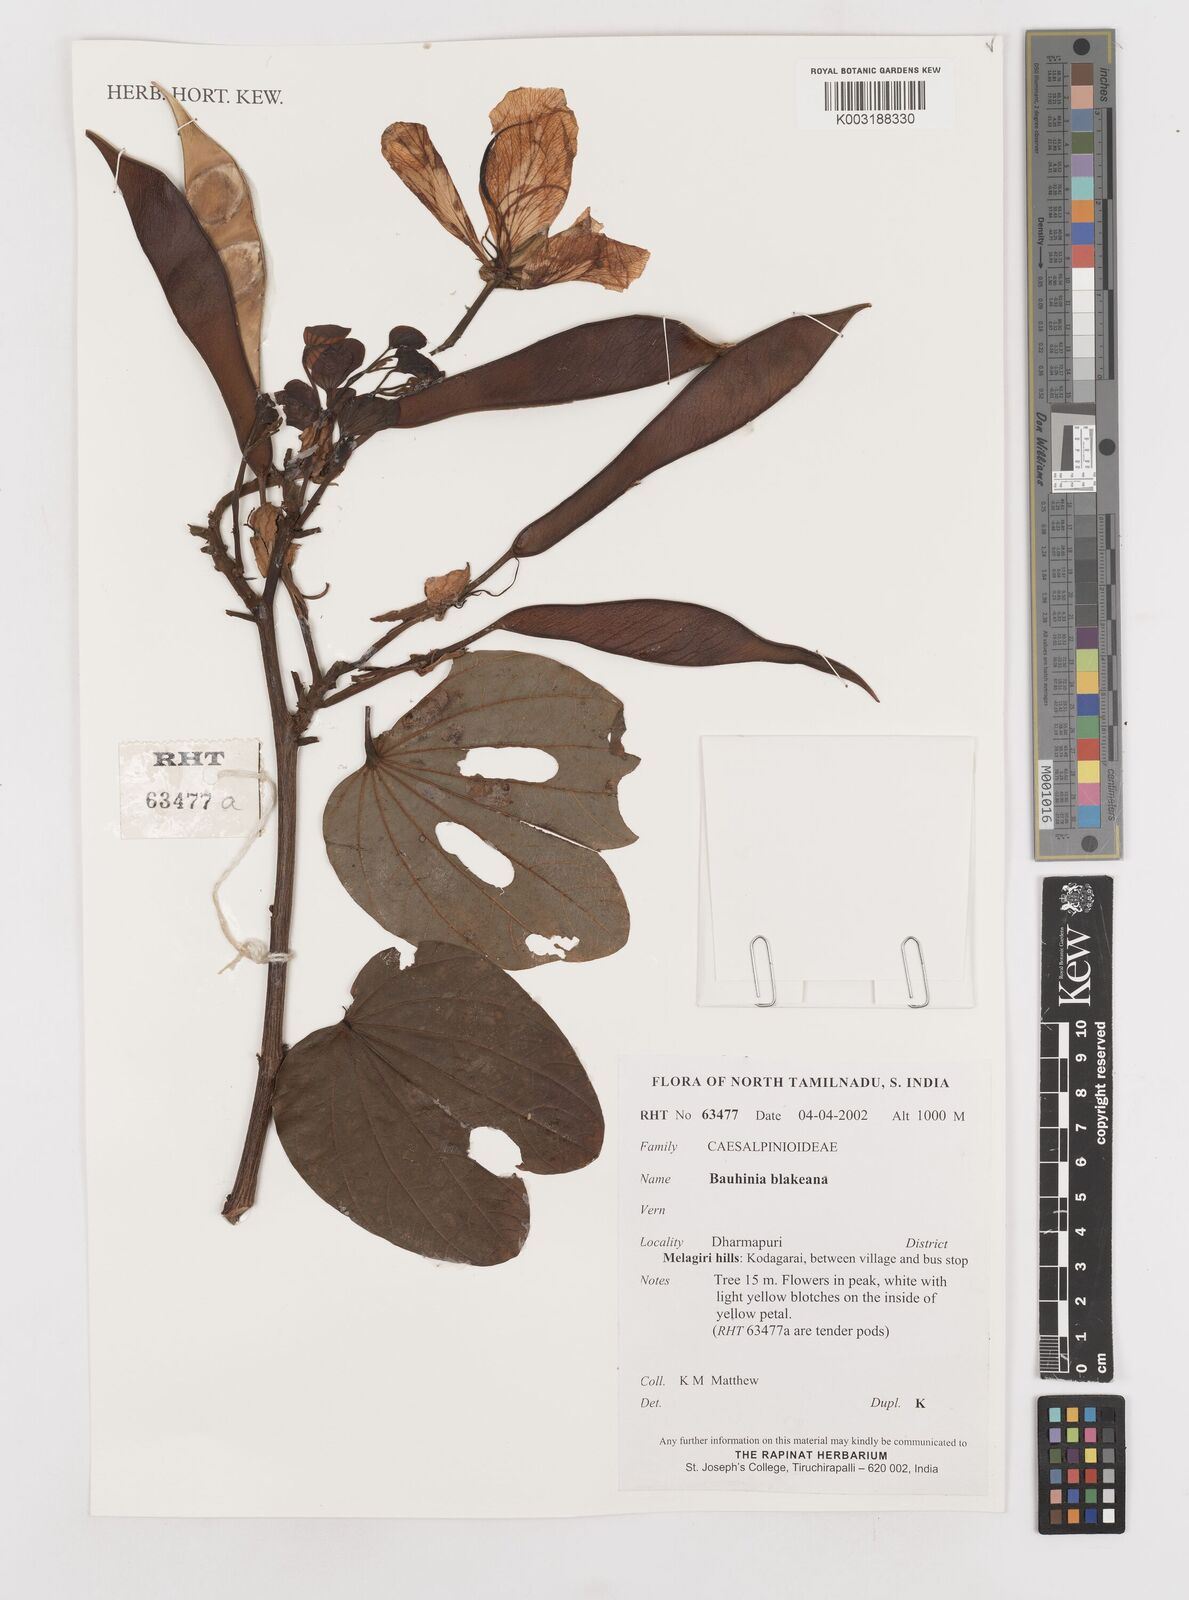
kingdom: Plantae
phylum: Tracheophyta
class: Magnoliopsida
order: Fabales
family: Fabaceae
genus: Bauhinia
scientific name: Bauhinia blakeana
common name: Bauhinia
